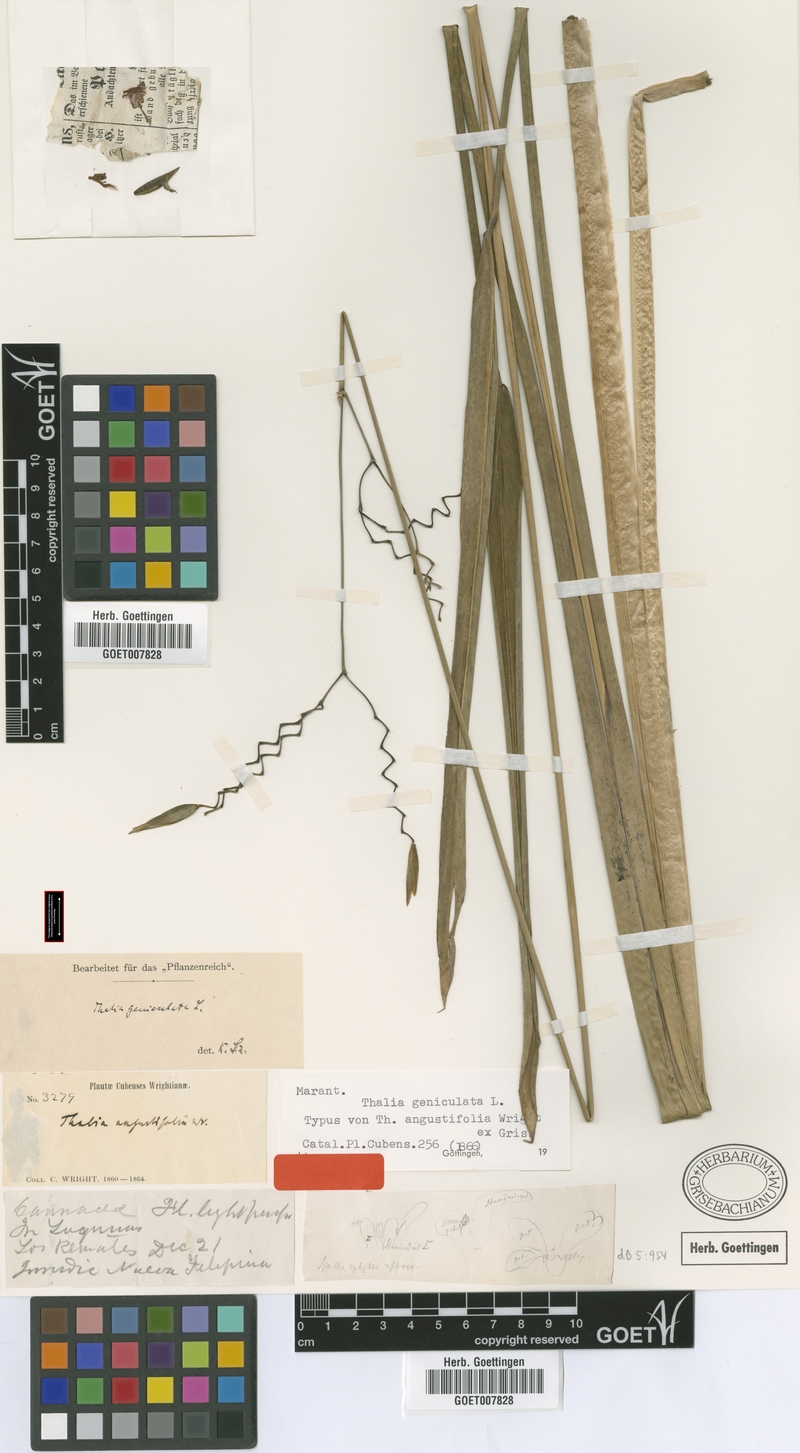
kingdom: Plantae
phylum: Tracheophyta
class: Liliopsida
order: Zingiberales
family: Marantaceae
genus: Thalia
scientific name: Thalia geniculata
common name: Arrowroot
